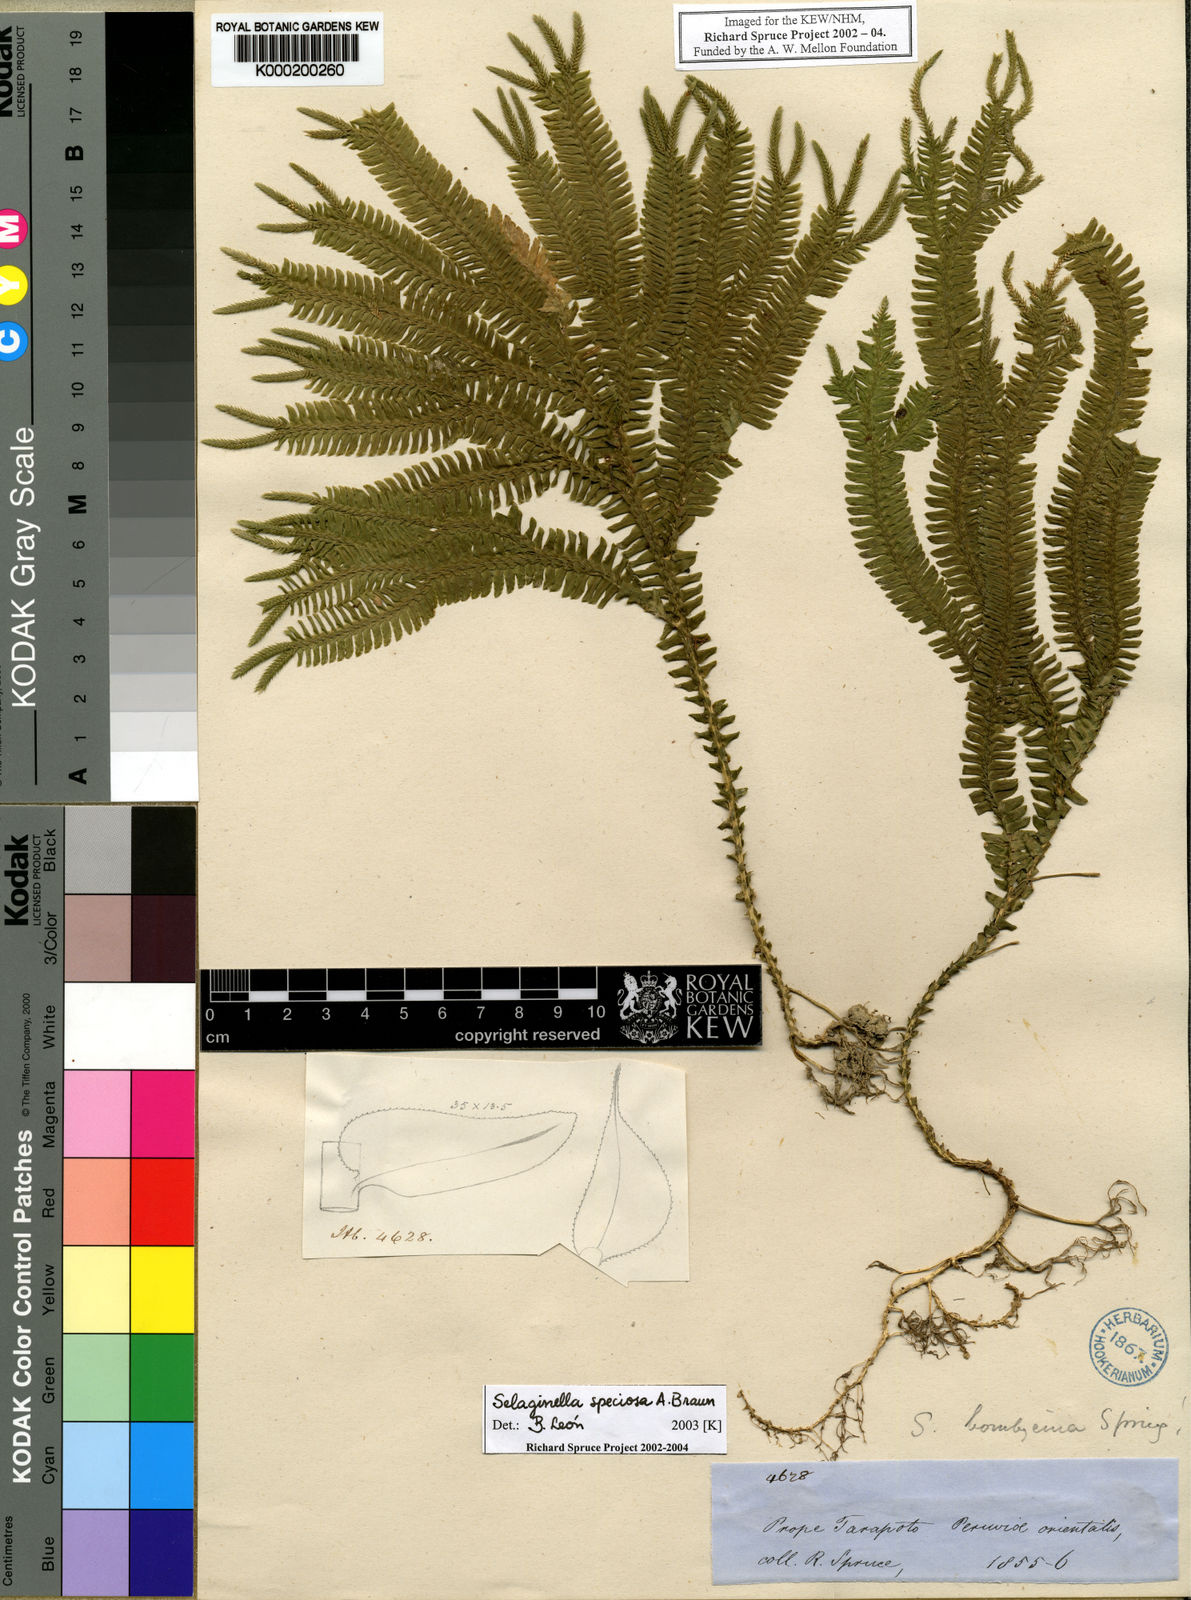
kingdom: Plantae
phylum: Tracheophyta
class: Lycopodiopsida
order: Selaginellales
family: Selaginellaceae
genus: Selaginella
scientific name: Selaginella
